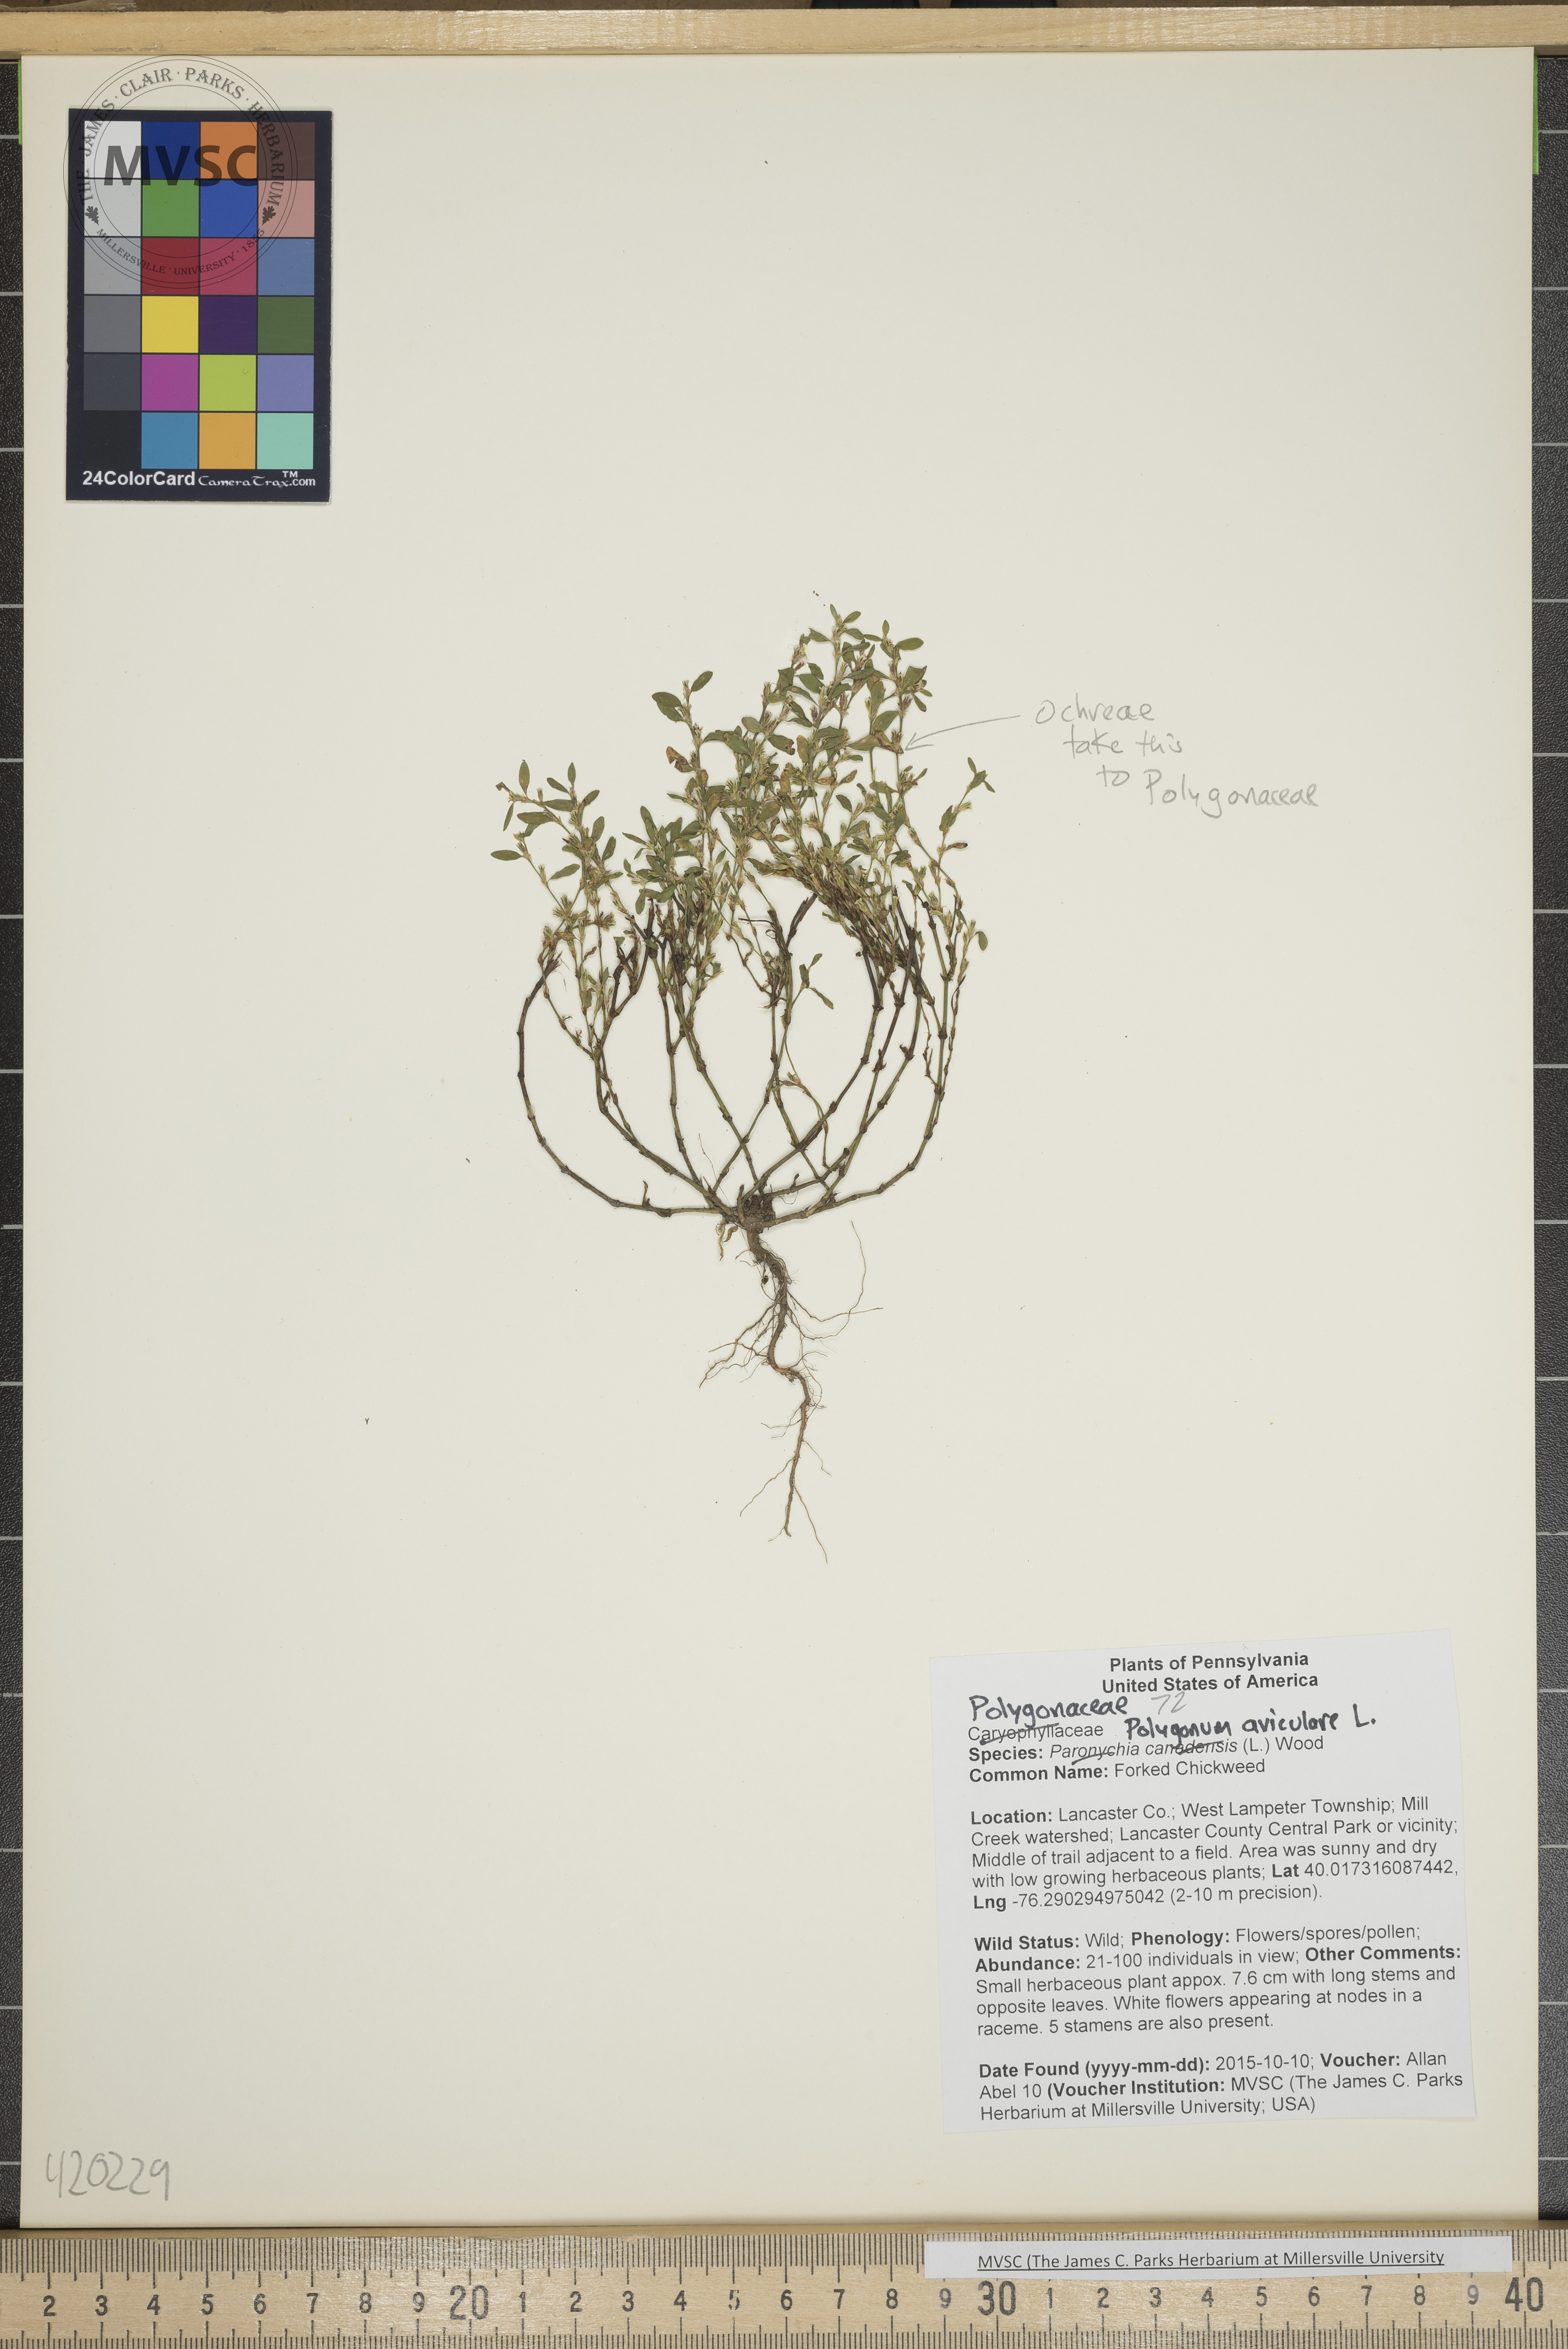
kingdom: Plantae
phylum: Tracheophyta
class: Magnoliopsida
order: Caryophyllales
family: Polygonaceae
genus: Polygonum
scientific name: Polygonum aviculare
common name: Knotweed
